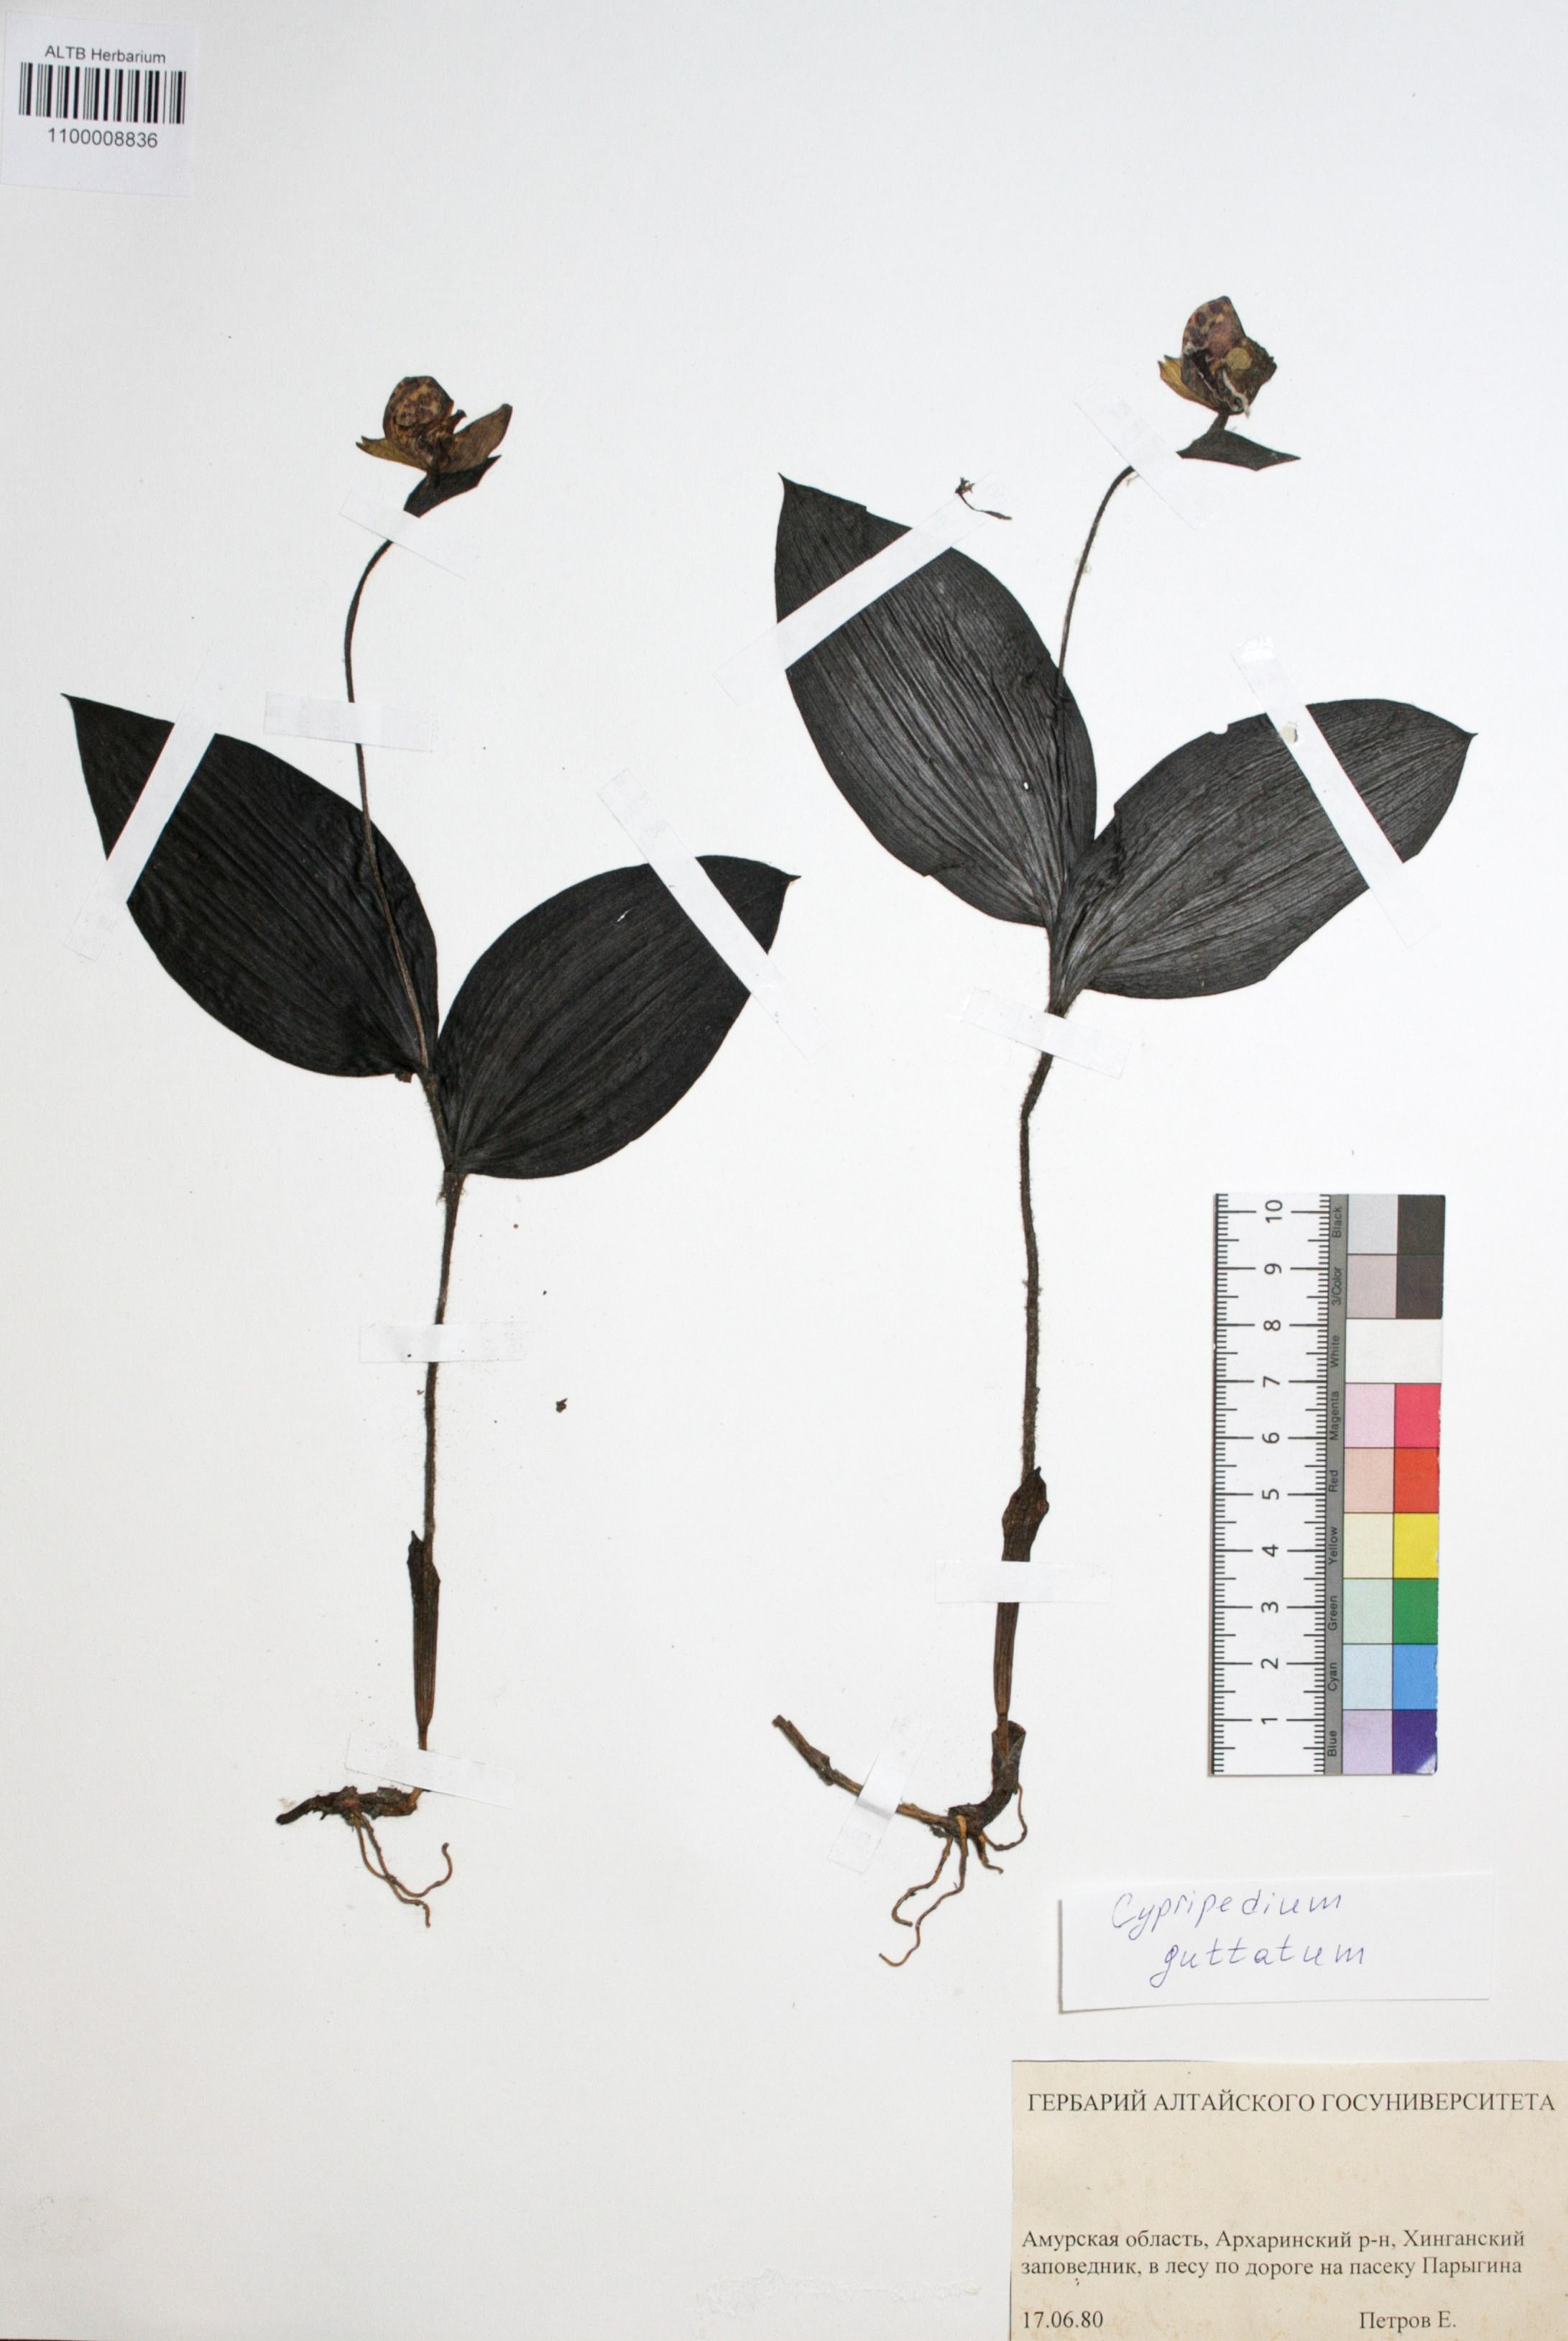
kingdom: Plantae
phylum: Tracheophyta
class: Liliopsida
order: Asparagales
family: Orchidaceae
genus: Cypripedium
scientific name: Cypripedium guttatum
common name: Pink lady slipper
